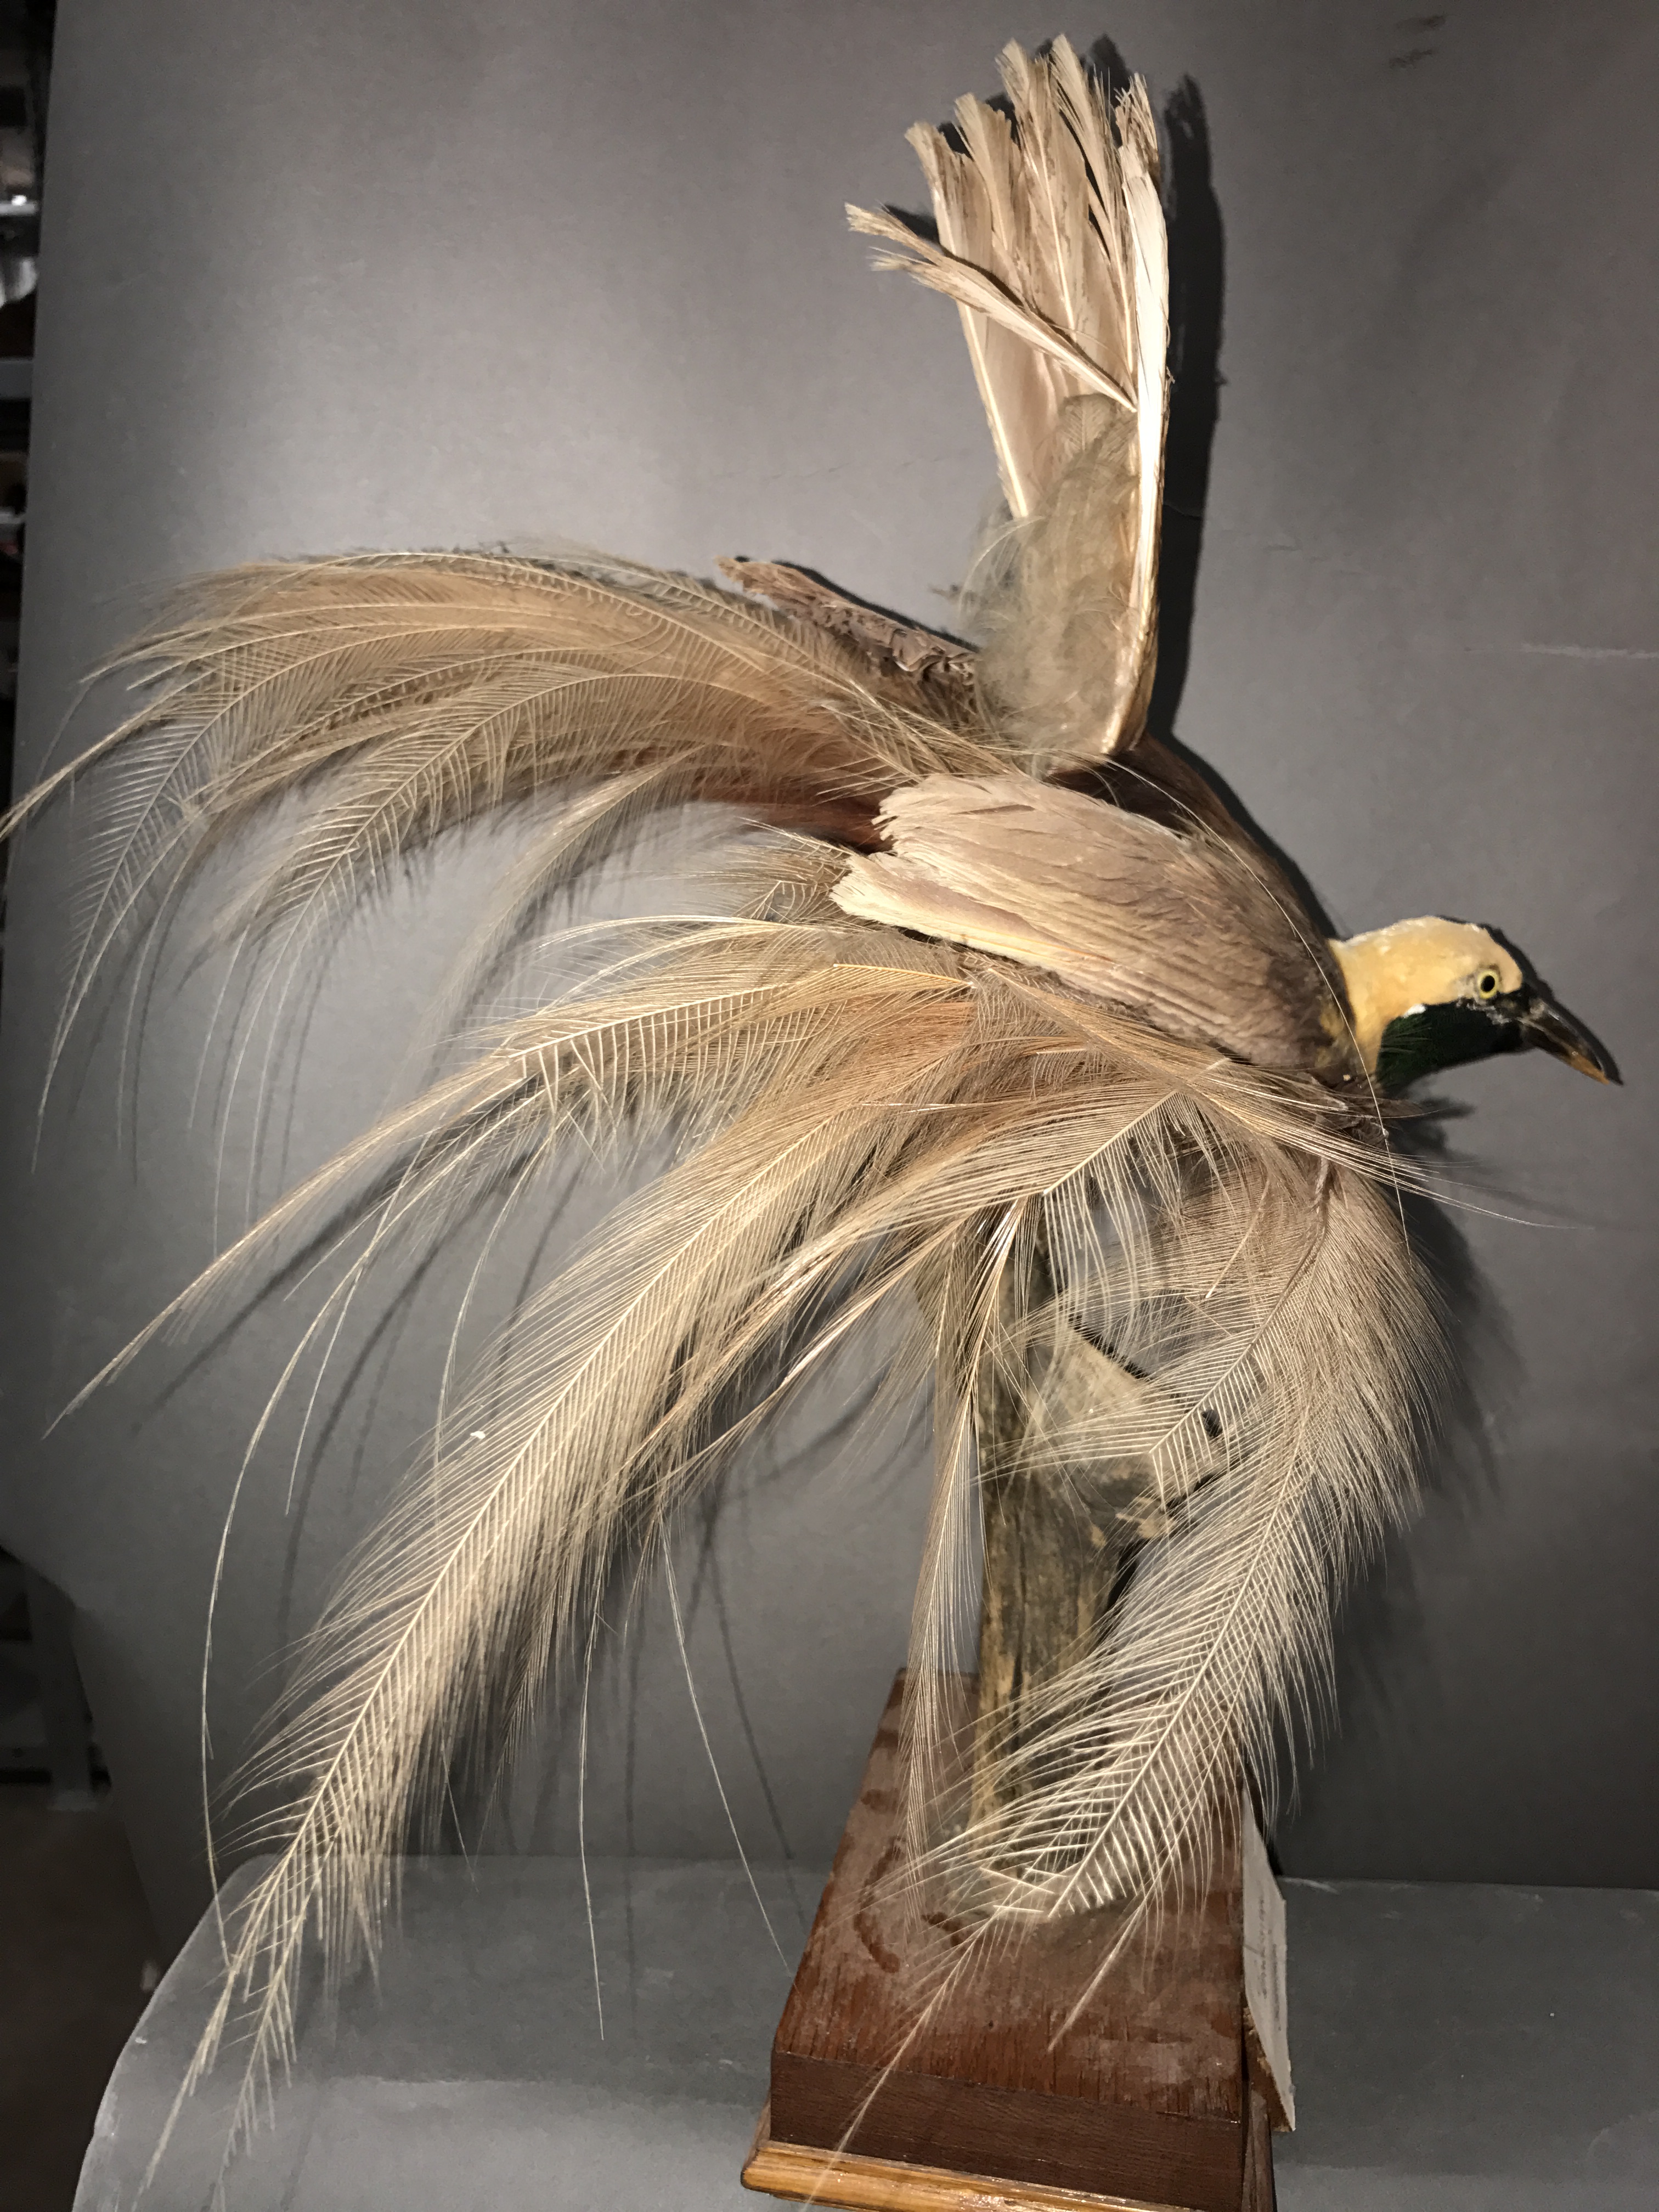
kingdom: Animalia
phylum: Chordata
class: Aves
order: Passeriformes
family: Paradisaeidae
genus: Paradisaea
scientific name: Paradisaea raggiana
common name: Raggiana bird-of-paradise
